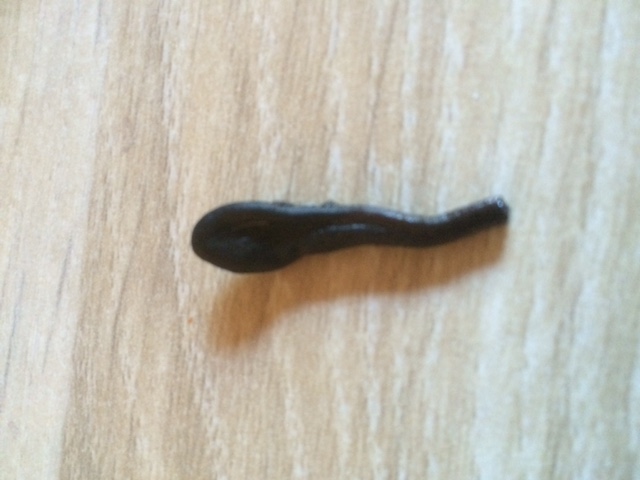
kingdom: Fungi
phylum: Ascomycota
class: Geoglossomycetes
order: Geoglossales
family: Geoglossaceae
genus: Glutinoglossum
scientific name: Glutinoglossum glutinosum
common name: slimet jordtunge
